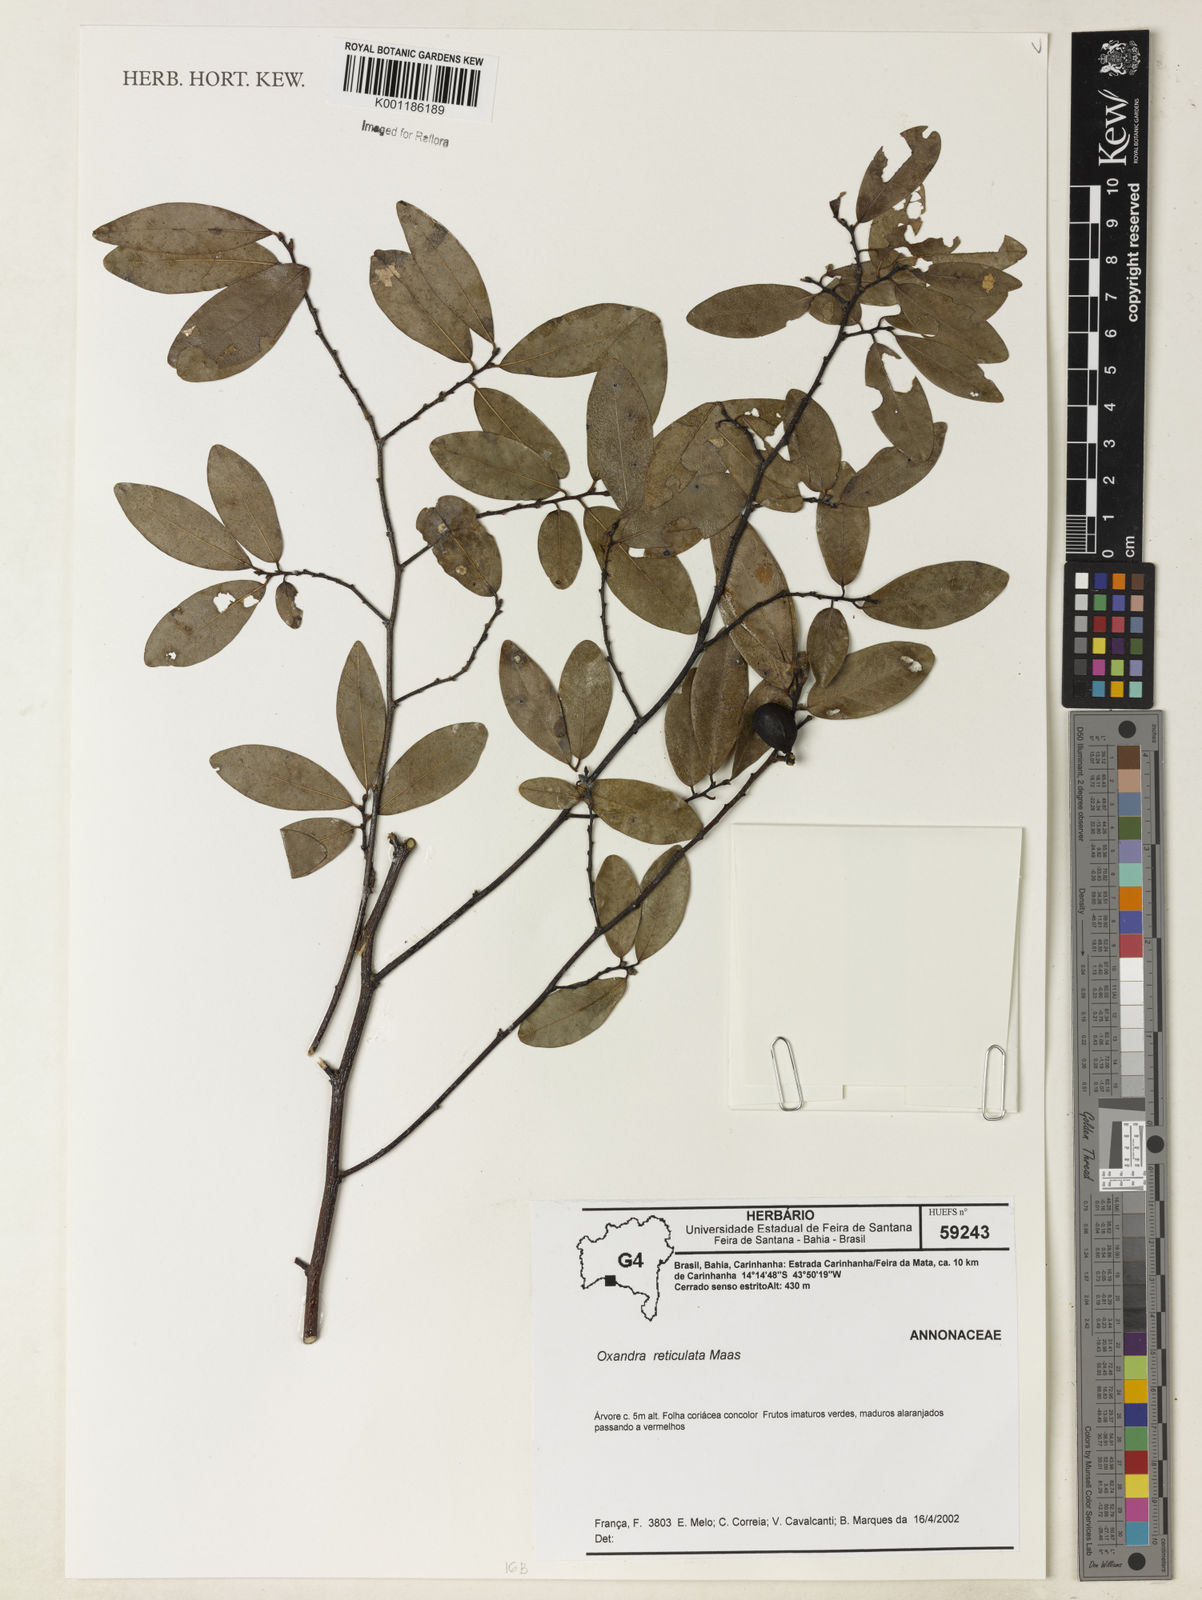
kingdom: Plantae
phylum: Tracheophyta
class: Magnoliopsida
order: Magnoliales
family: Annonaceae
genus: Oxandra
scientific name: Oxandra reticulata
